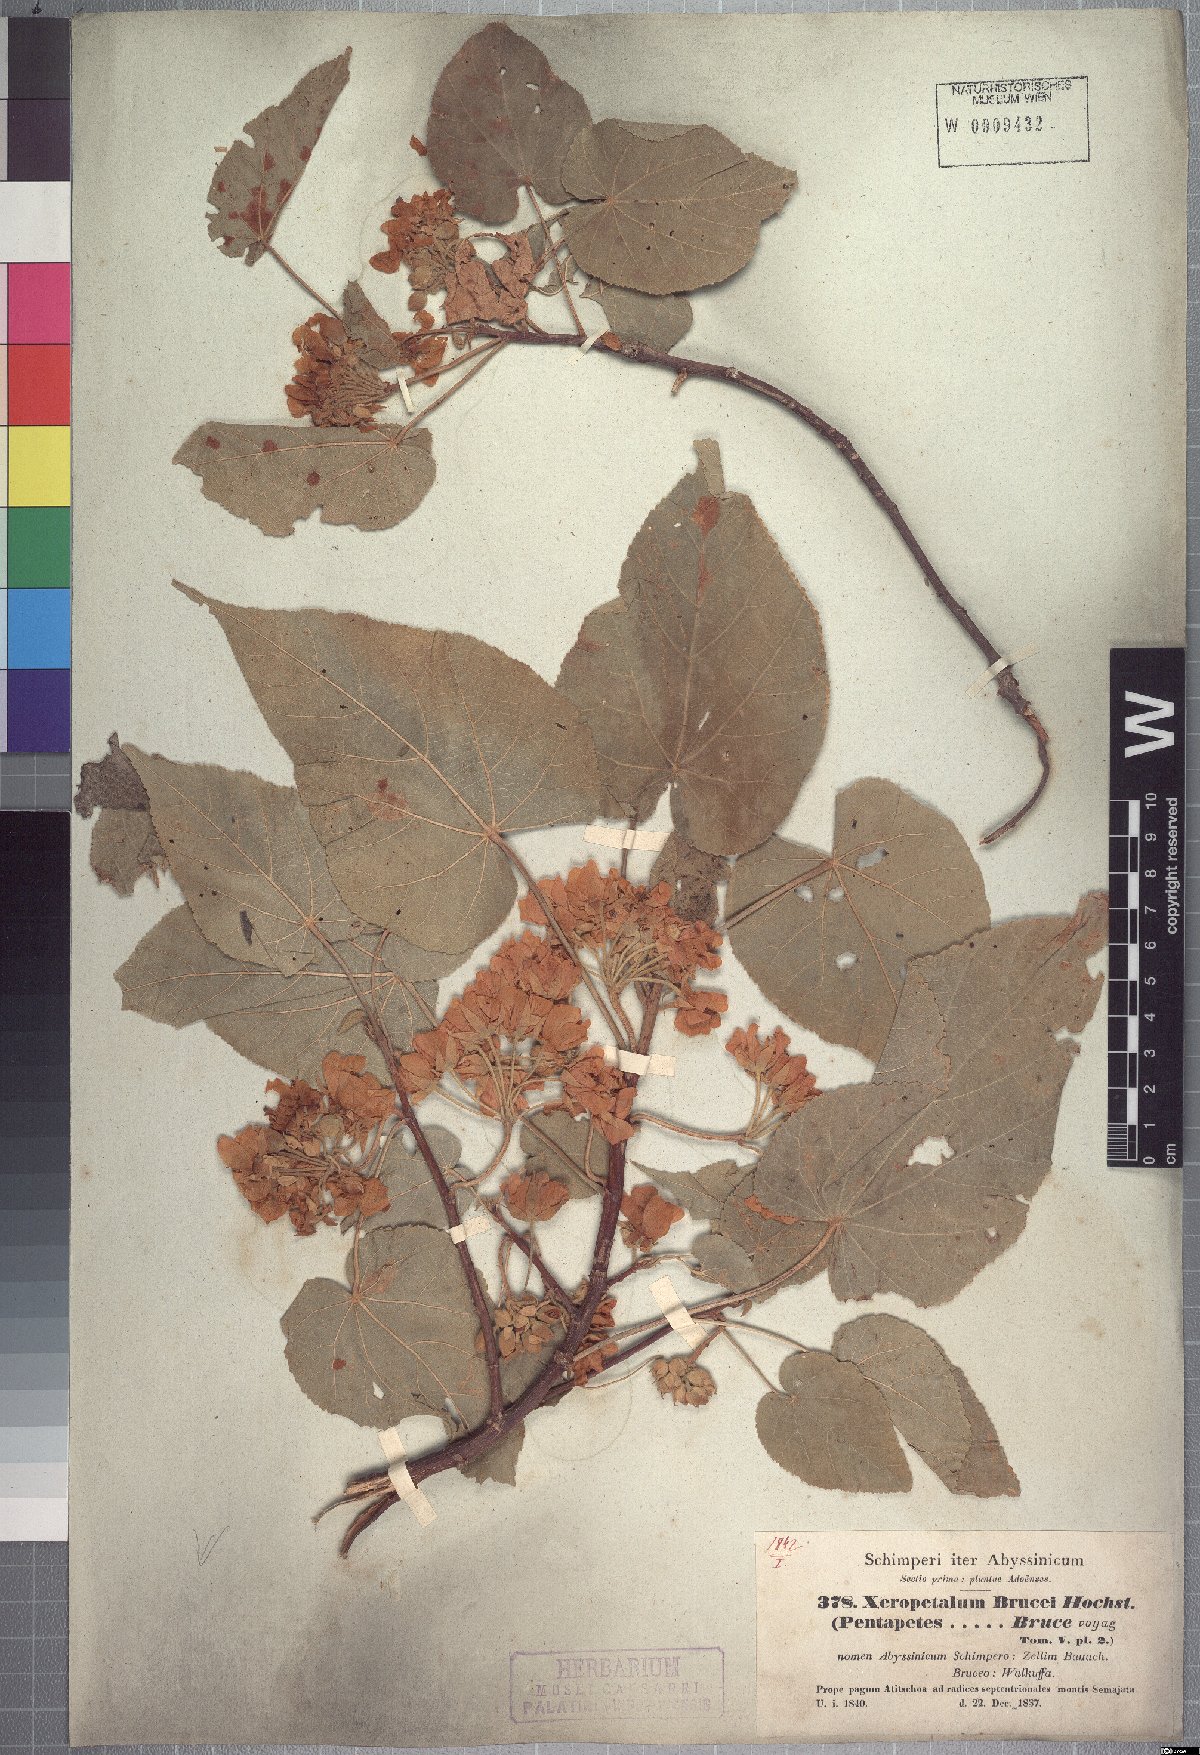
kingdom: Plantae
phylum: Tracheophyta
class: Magnoliopsida
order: Malvales
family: Malvaceae
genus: Dombeya
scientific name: Dombeya torrida
